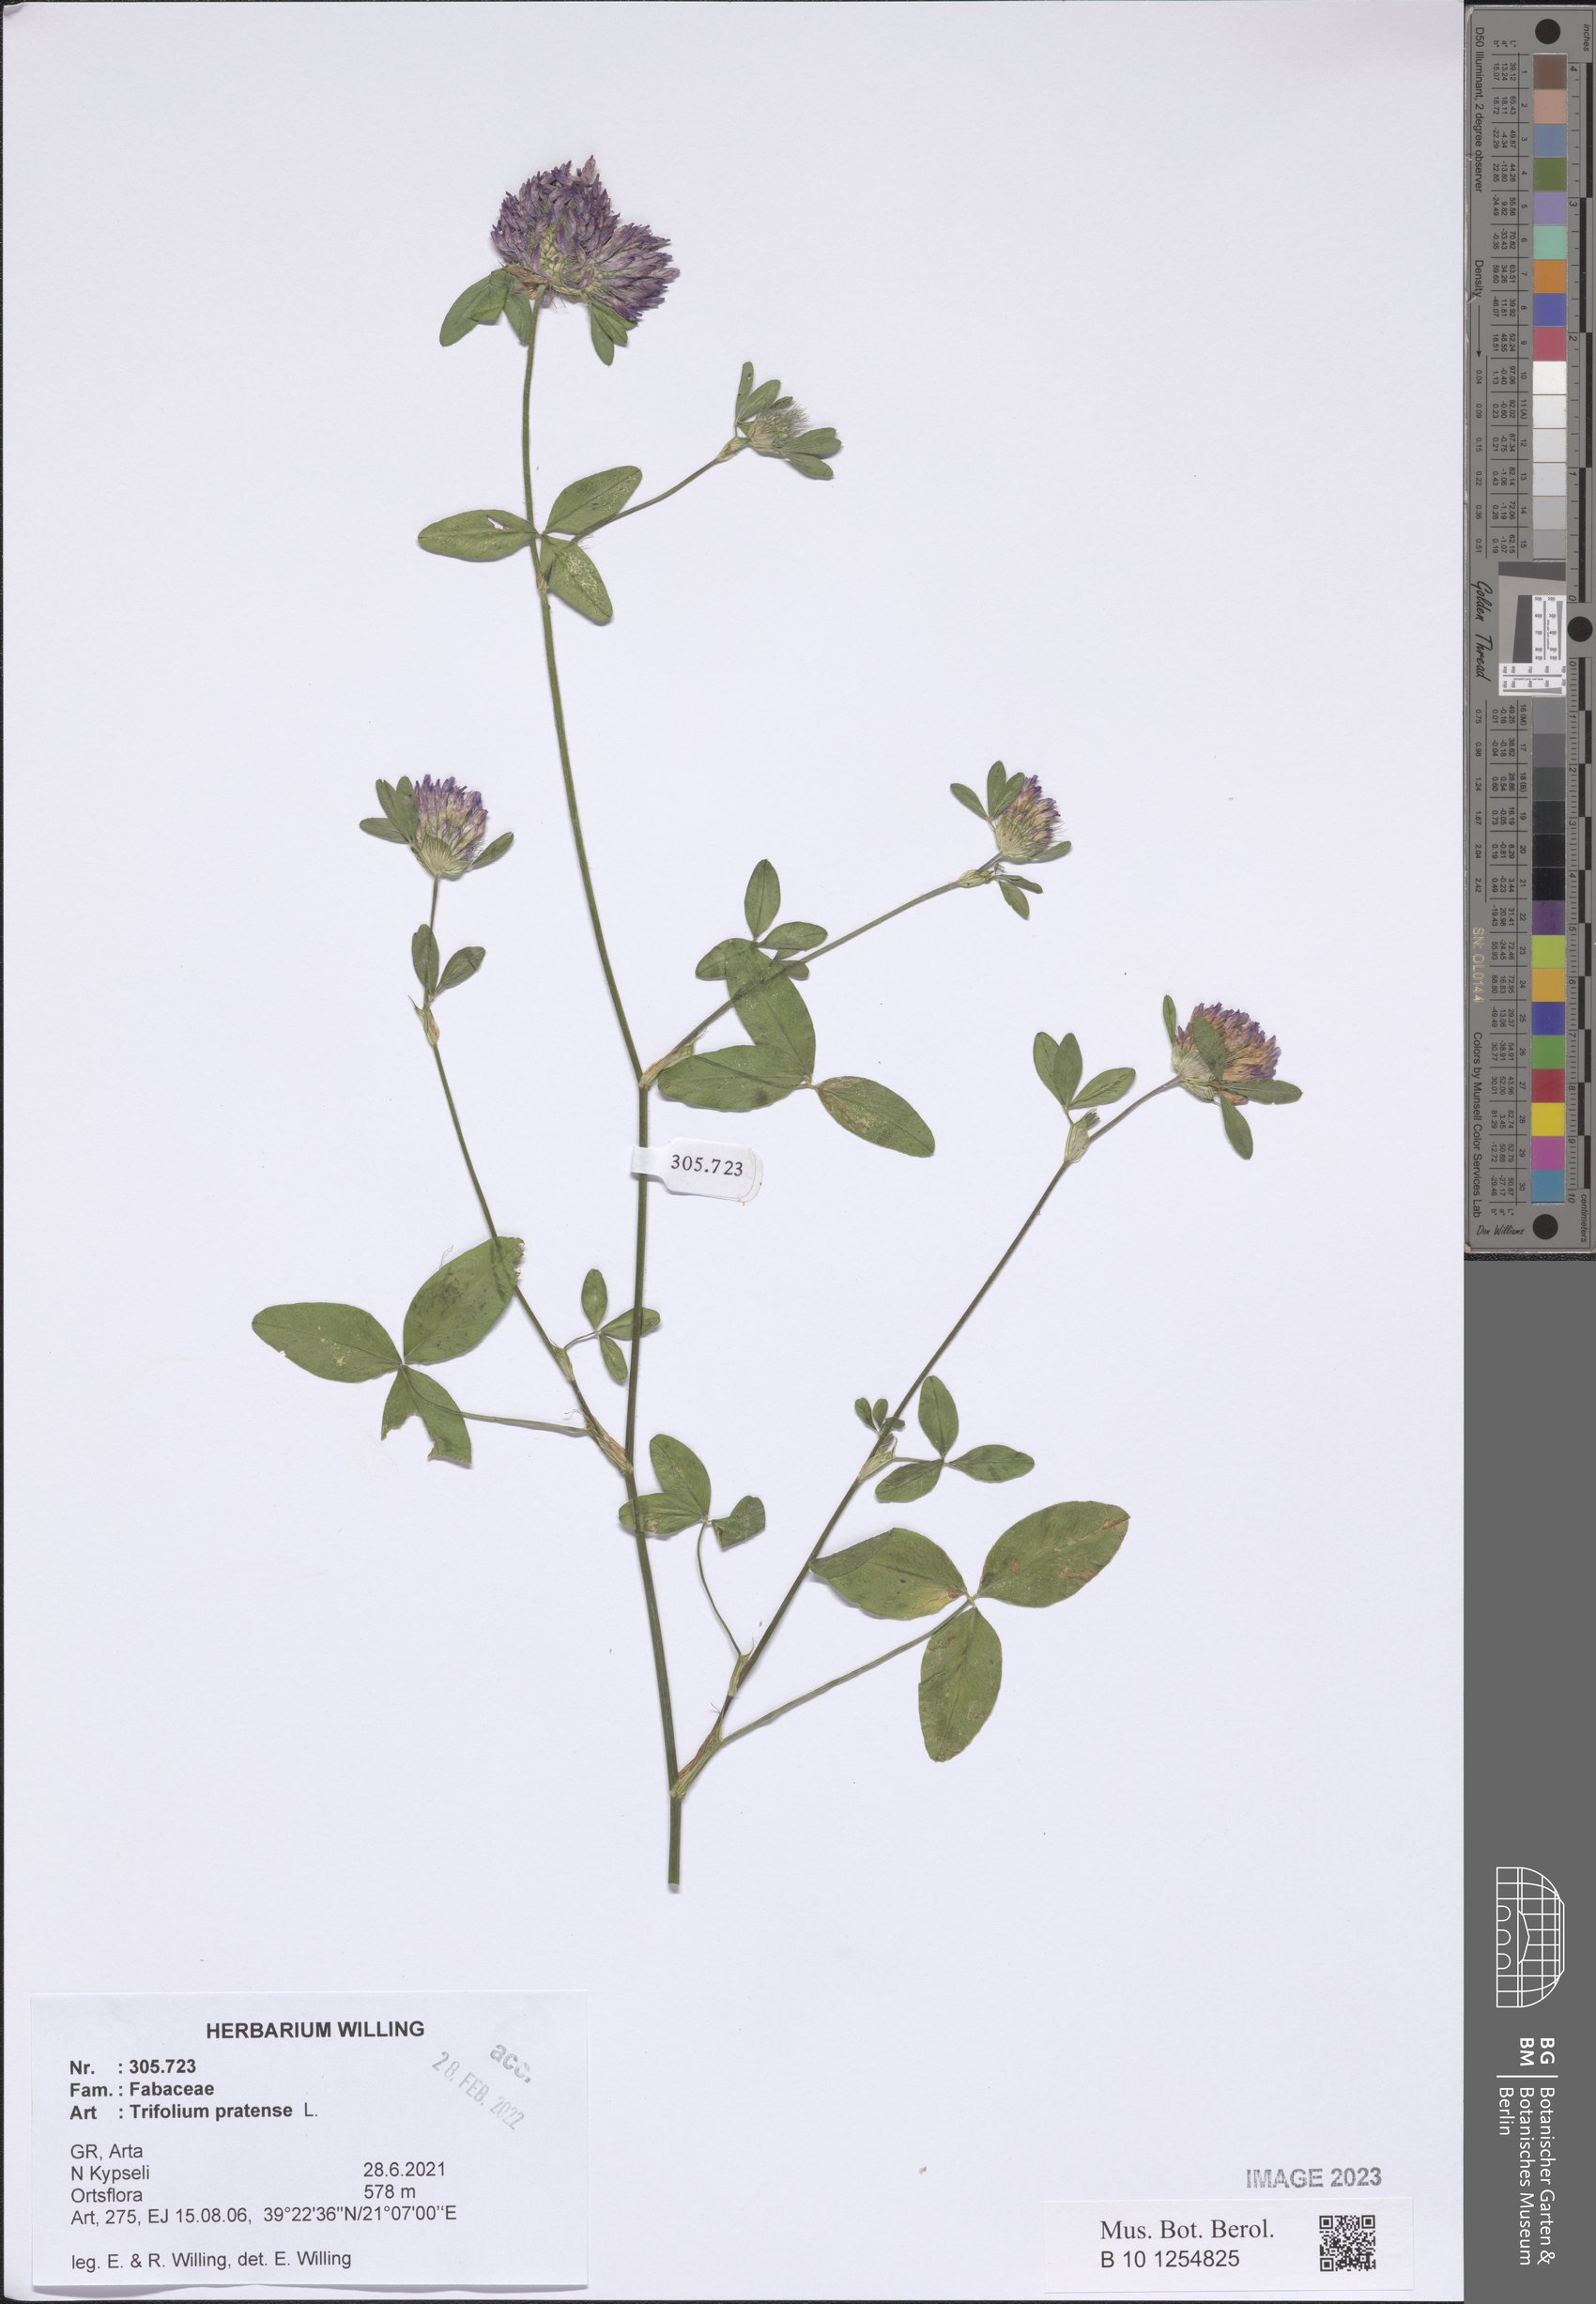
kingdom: Plantae
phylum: Tracheophyta
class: Magnoliopsida
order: Fabales
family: Fabaceae
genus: Trifolium
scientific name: Trifolium pratense
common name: Red clover
